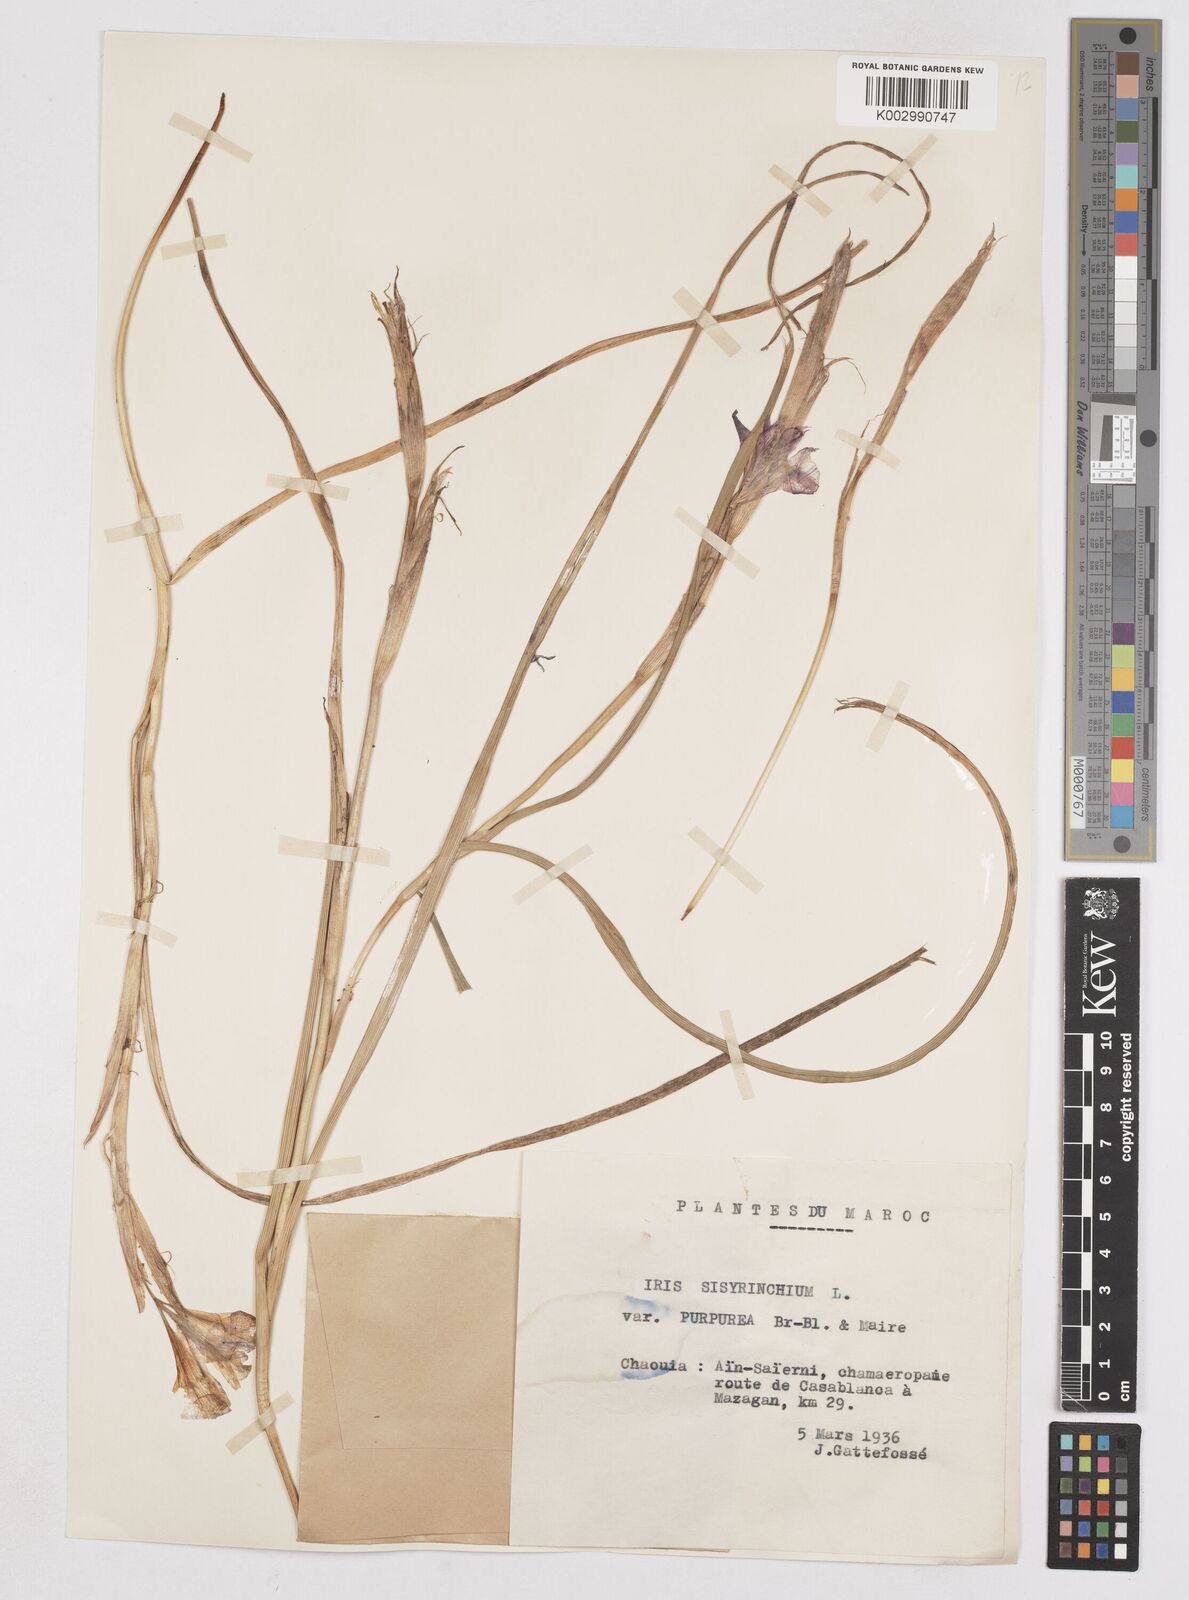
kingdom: Plantae
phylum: Tracheophyta
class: Liliopsida
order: Asparagales
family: Iridaceae
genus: Moraea
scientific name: Moraea sisyrinchium
